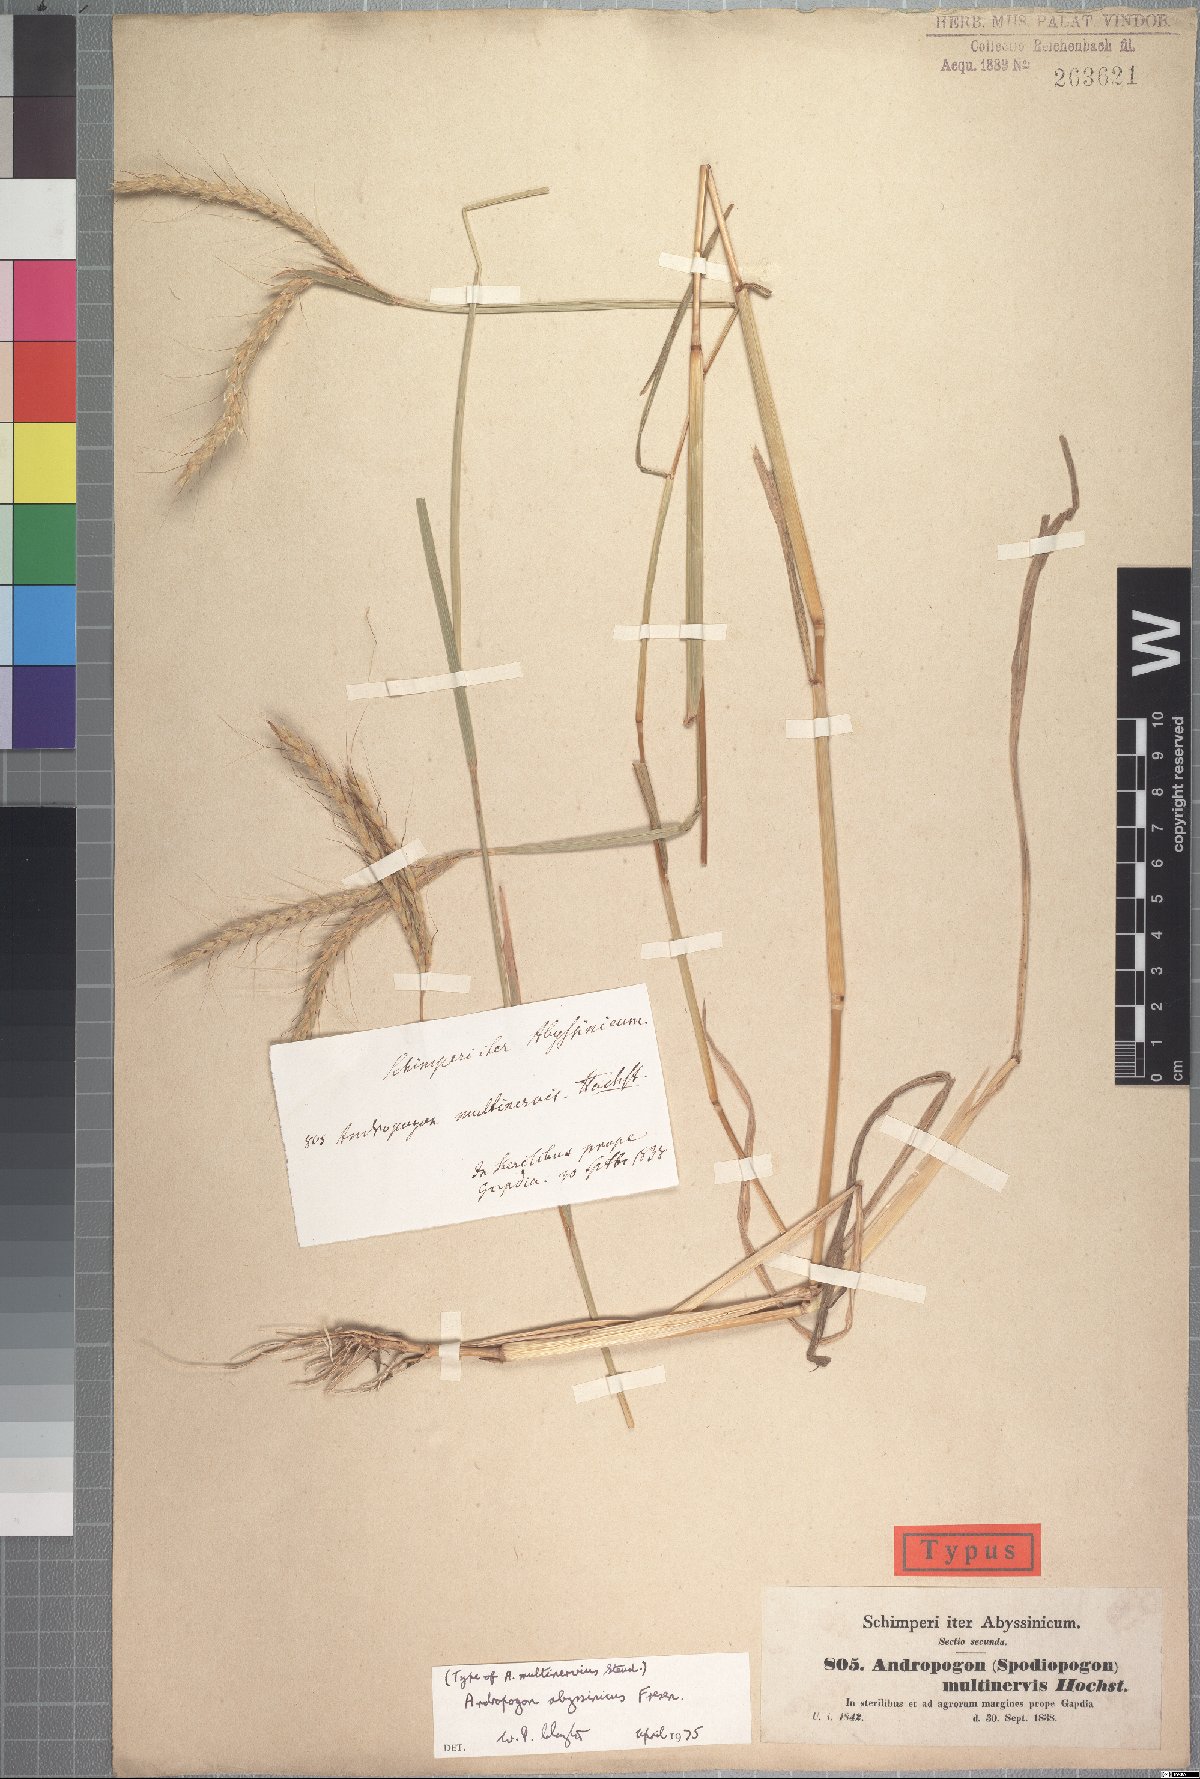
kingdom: Plantae
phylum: Tracheophyta
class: Liliopsida
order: Poales
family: Poaceae
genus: Andropogon
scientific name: Andropogon abyssinicus
